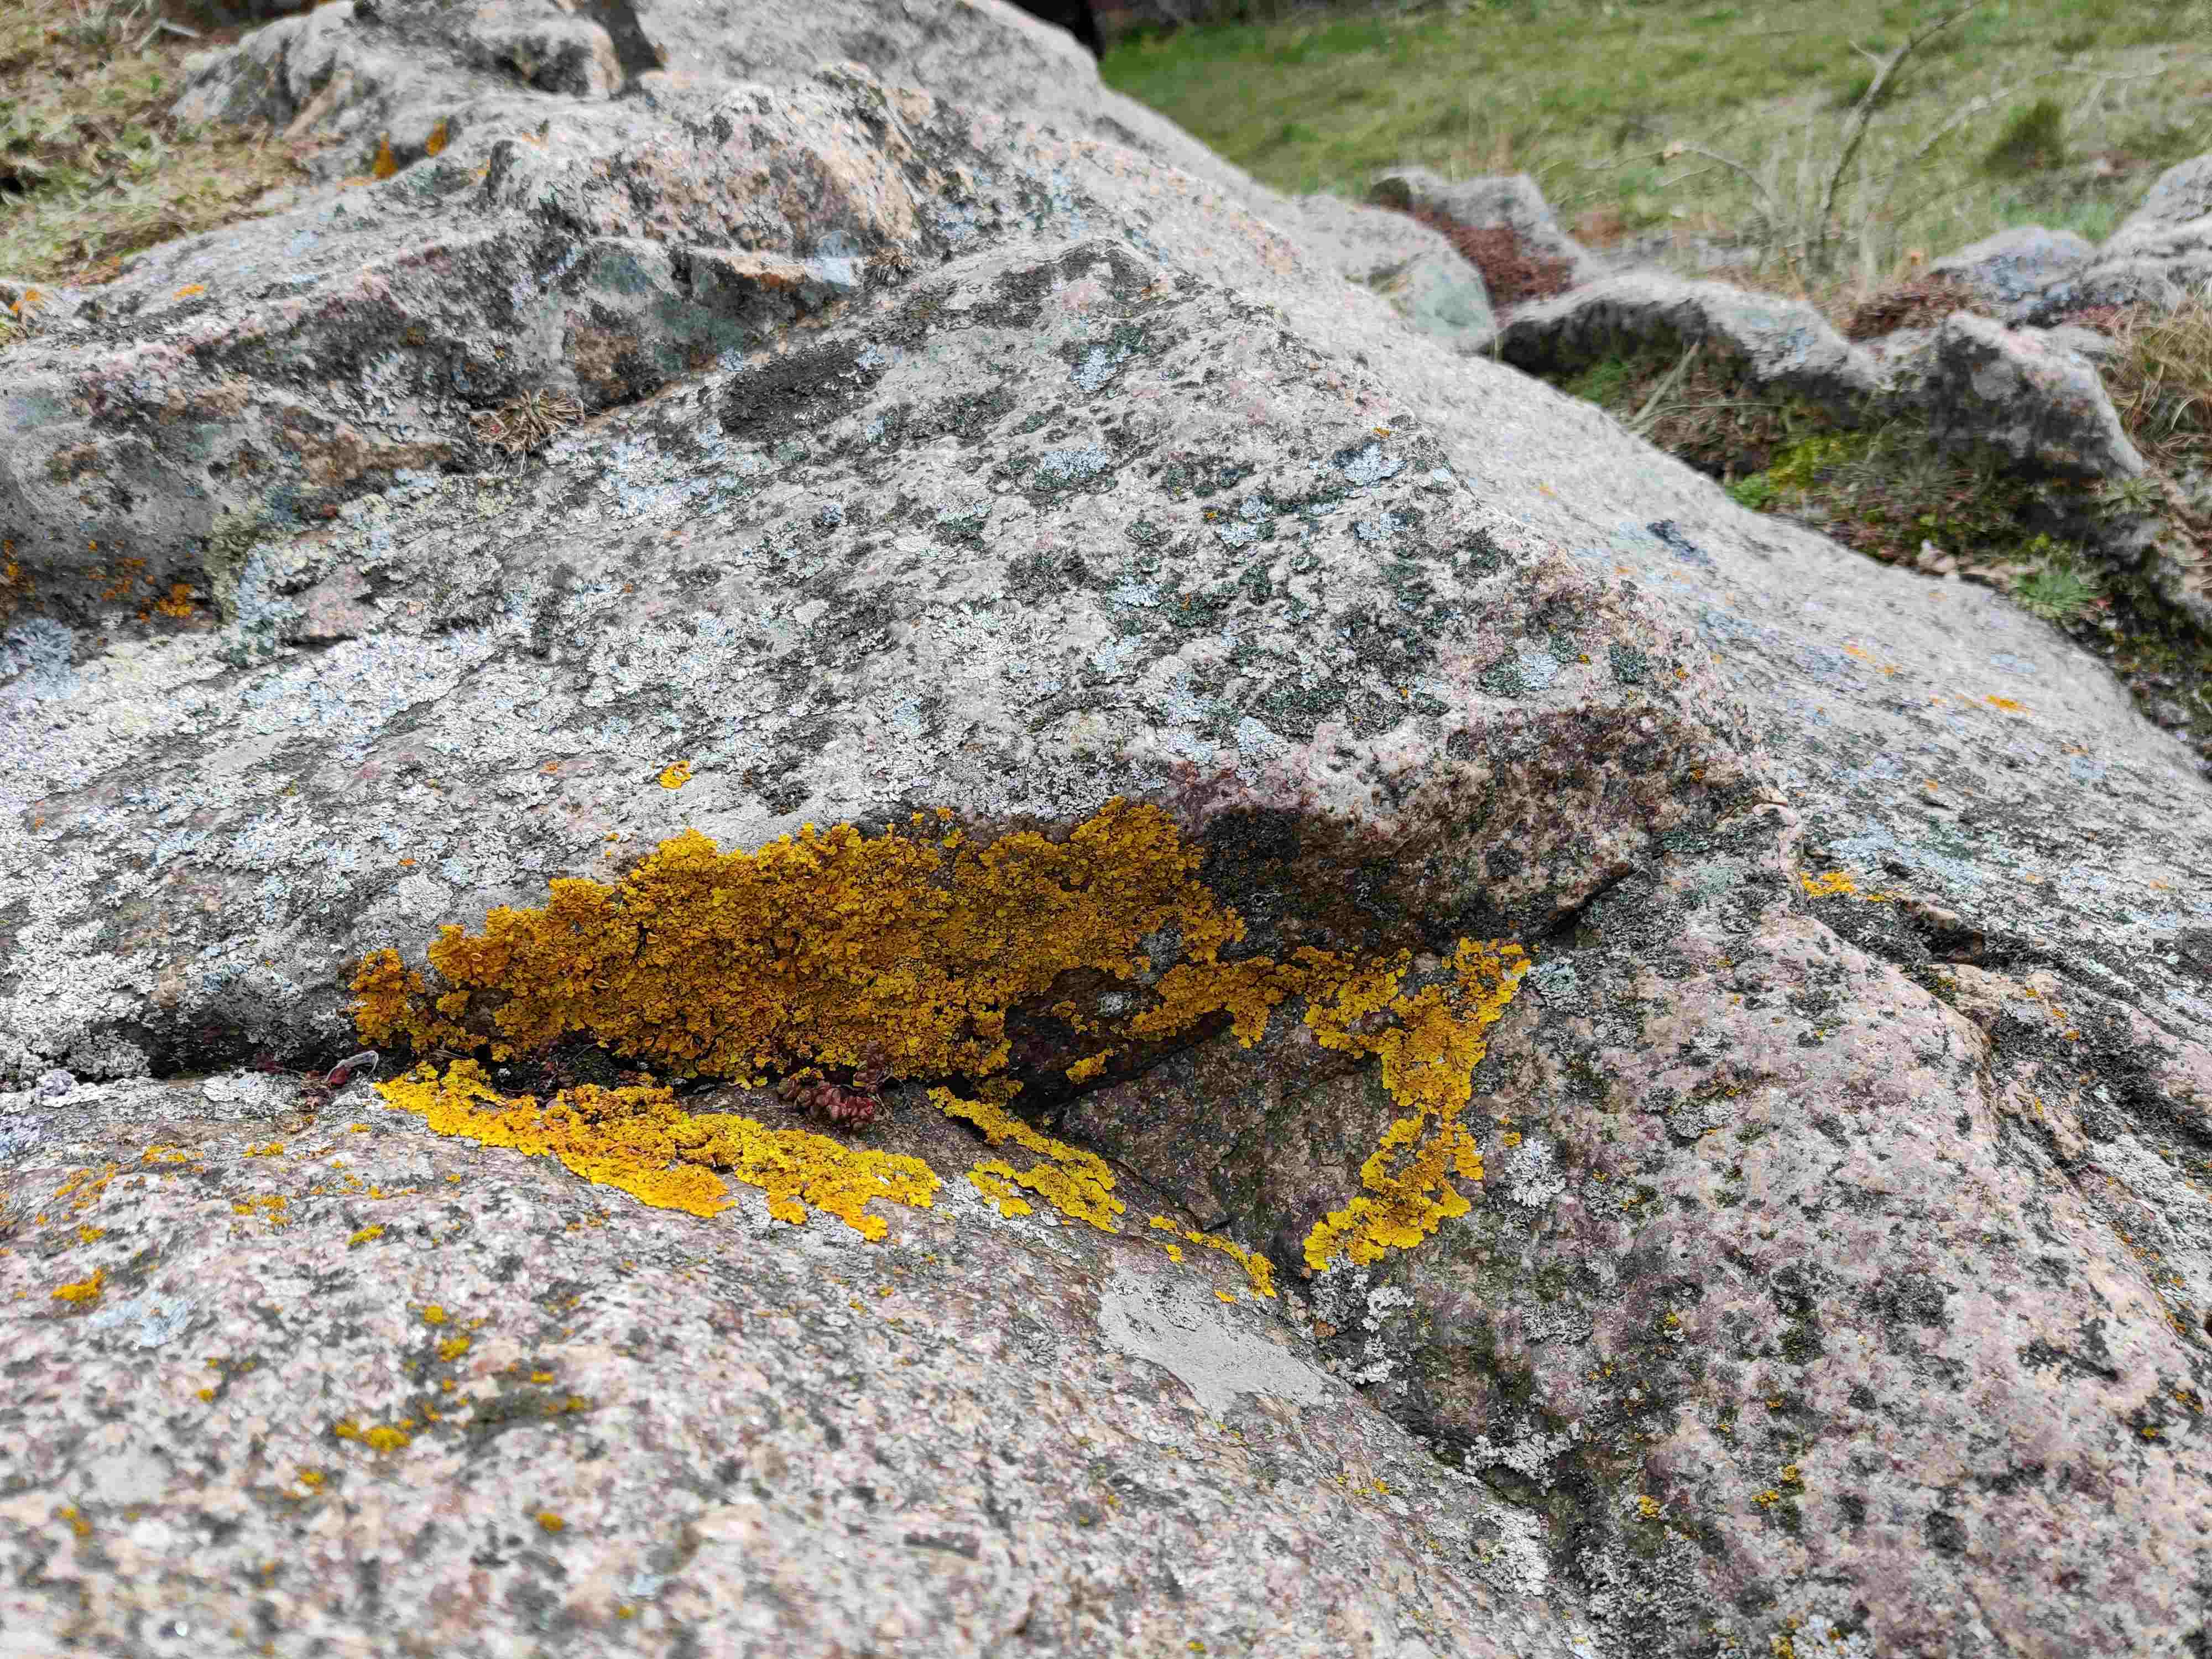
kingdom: Fungi
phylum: Ascomycota
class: Lecanoromycetes
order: Teloschistales
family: Teloschistaceae
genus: Xanthoria
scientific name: Xanthoria aureola
